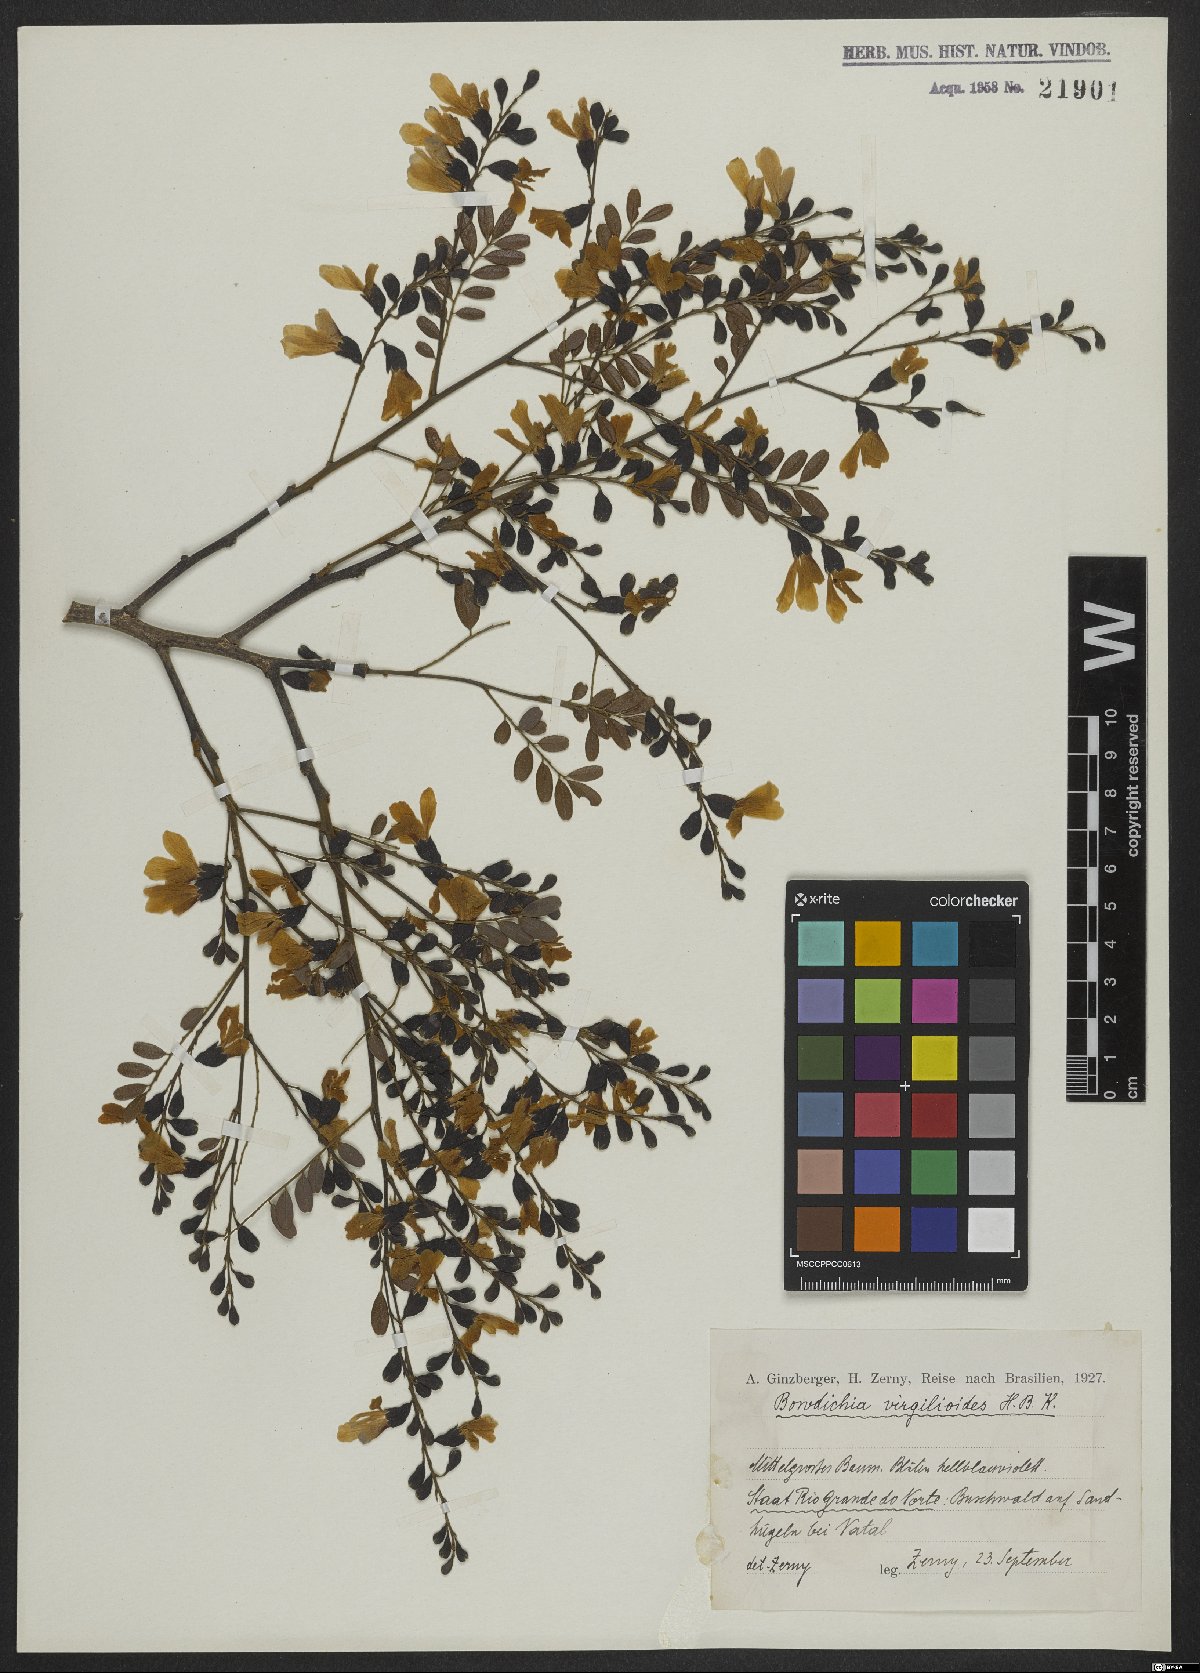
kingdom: Plantae
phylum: Tracheophyta
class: Magnoliopsida
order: Fabales
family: Fabaceae
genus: Bowdichia
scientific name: Bowdichia virgilioides
